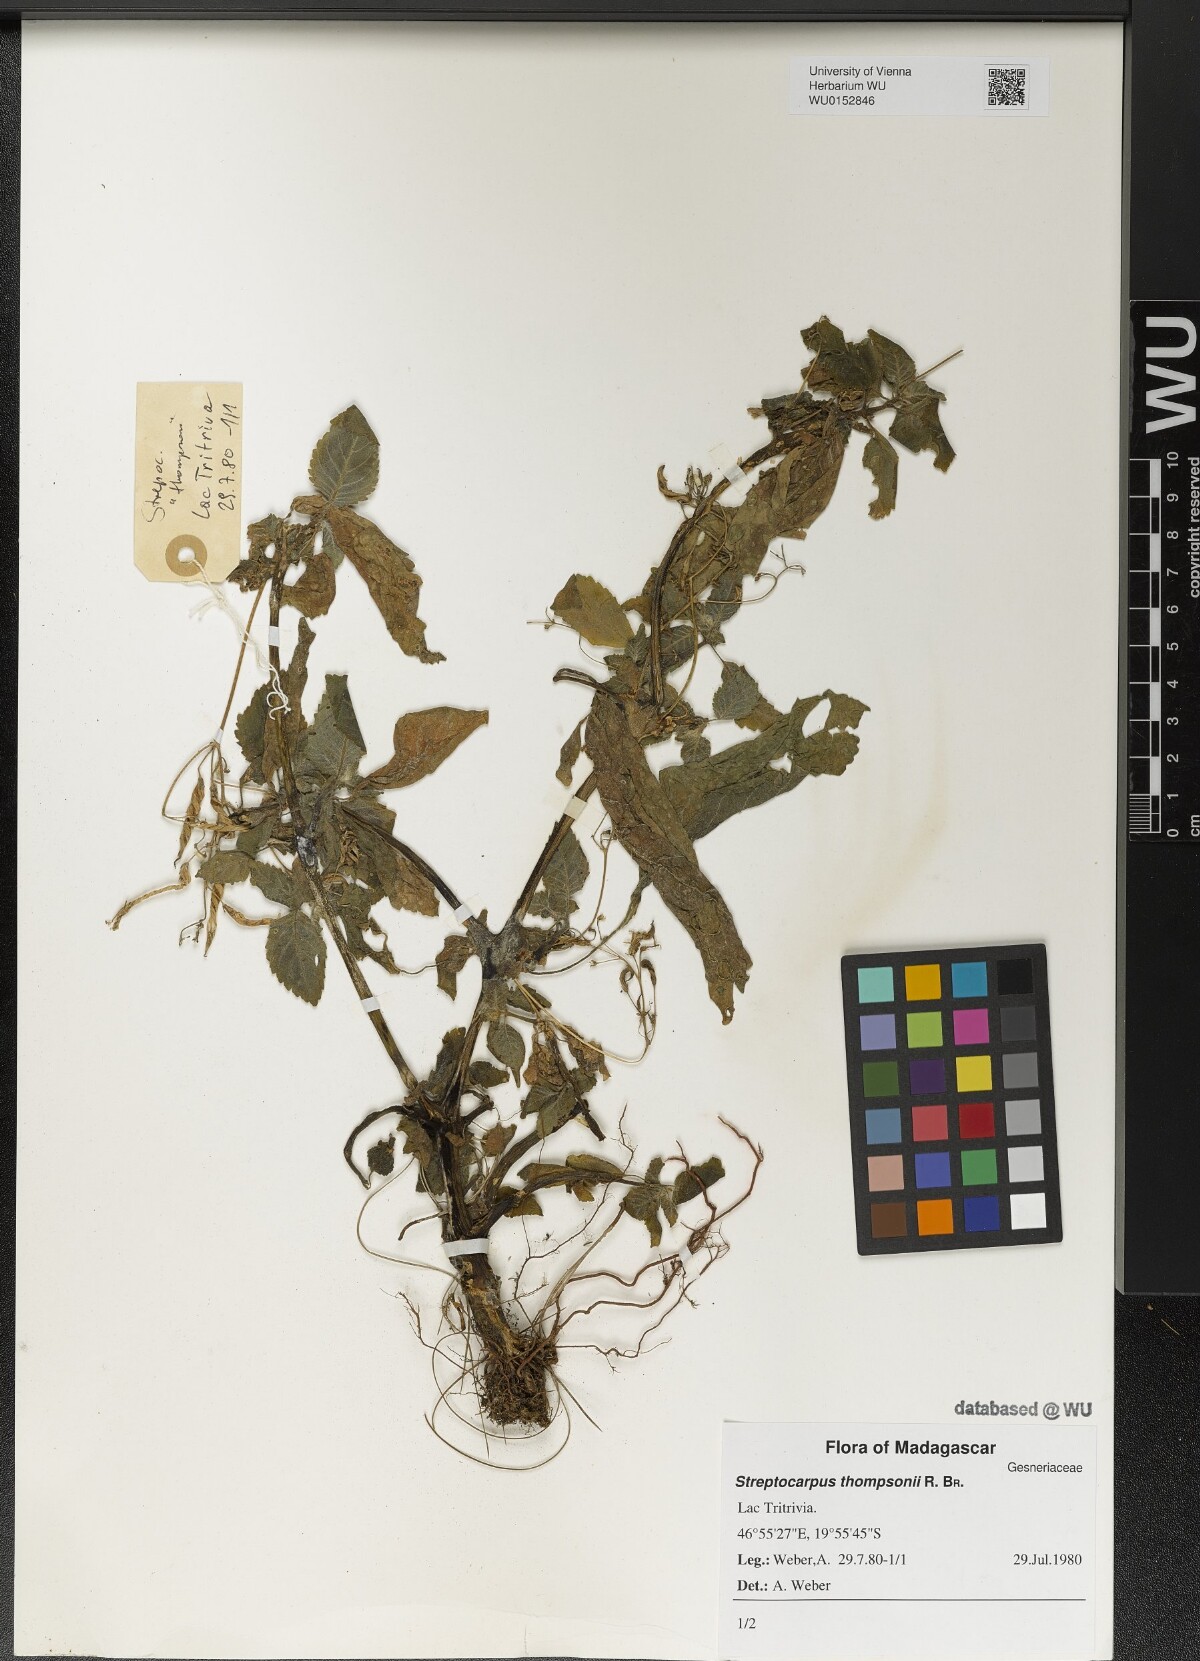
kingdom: Plantae
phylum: Tracheophyta
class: Magnoliopsida
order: Lamiales
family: Gesneriaceae
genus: Streptocarpus
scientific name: Streptocarpus thompsonii
